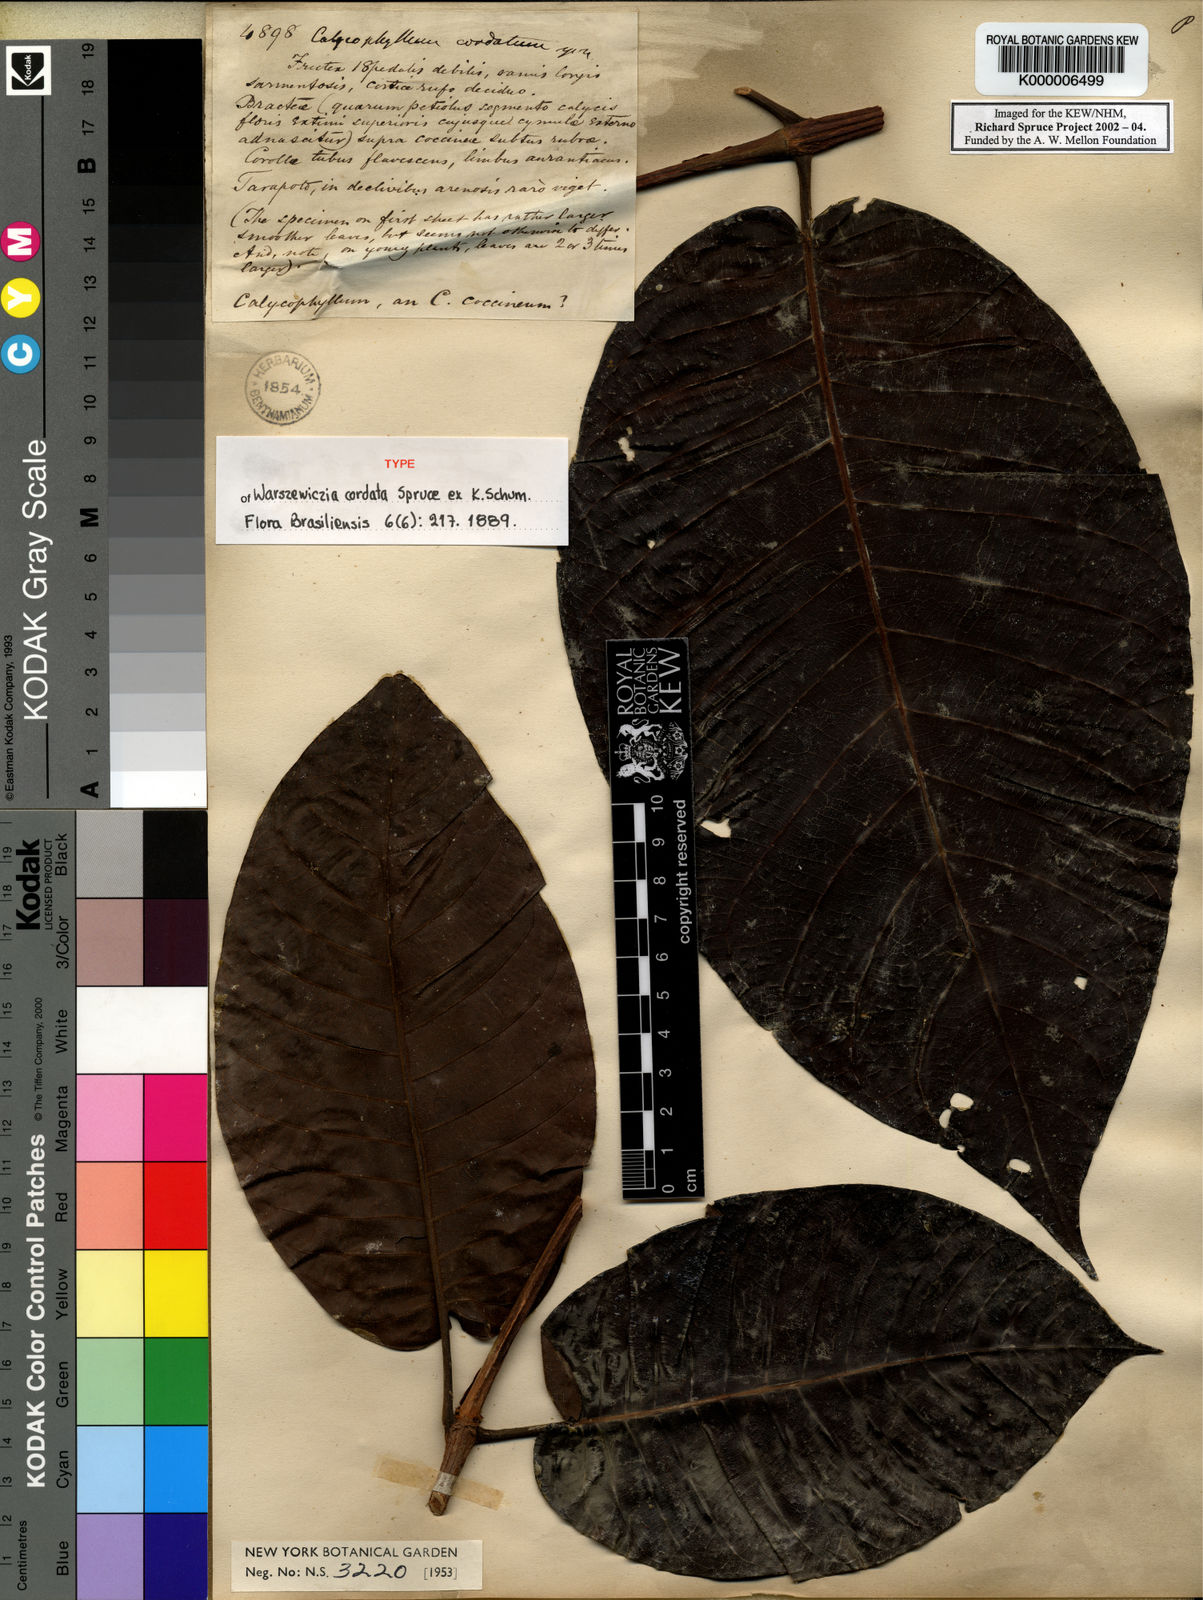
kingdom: Plantae
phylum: Tracheophyta
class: Magnoliopsida
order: Gentianales
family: Rubiaceae
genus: Warszewiczia
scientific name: Warszewiczia cordata
